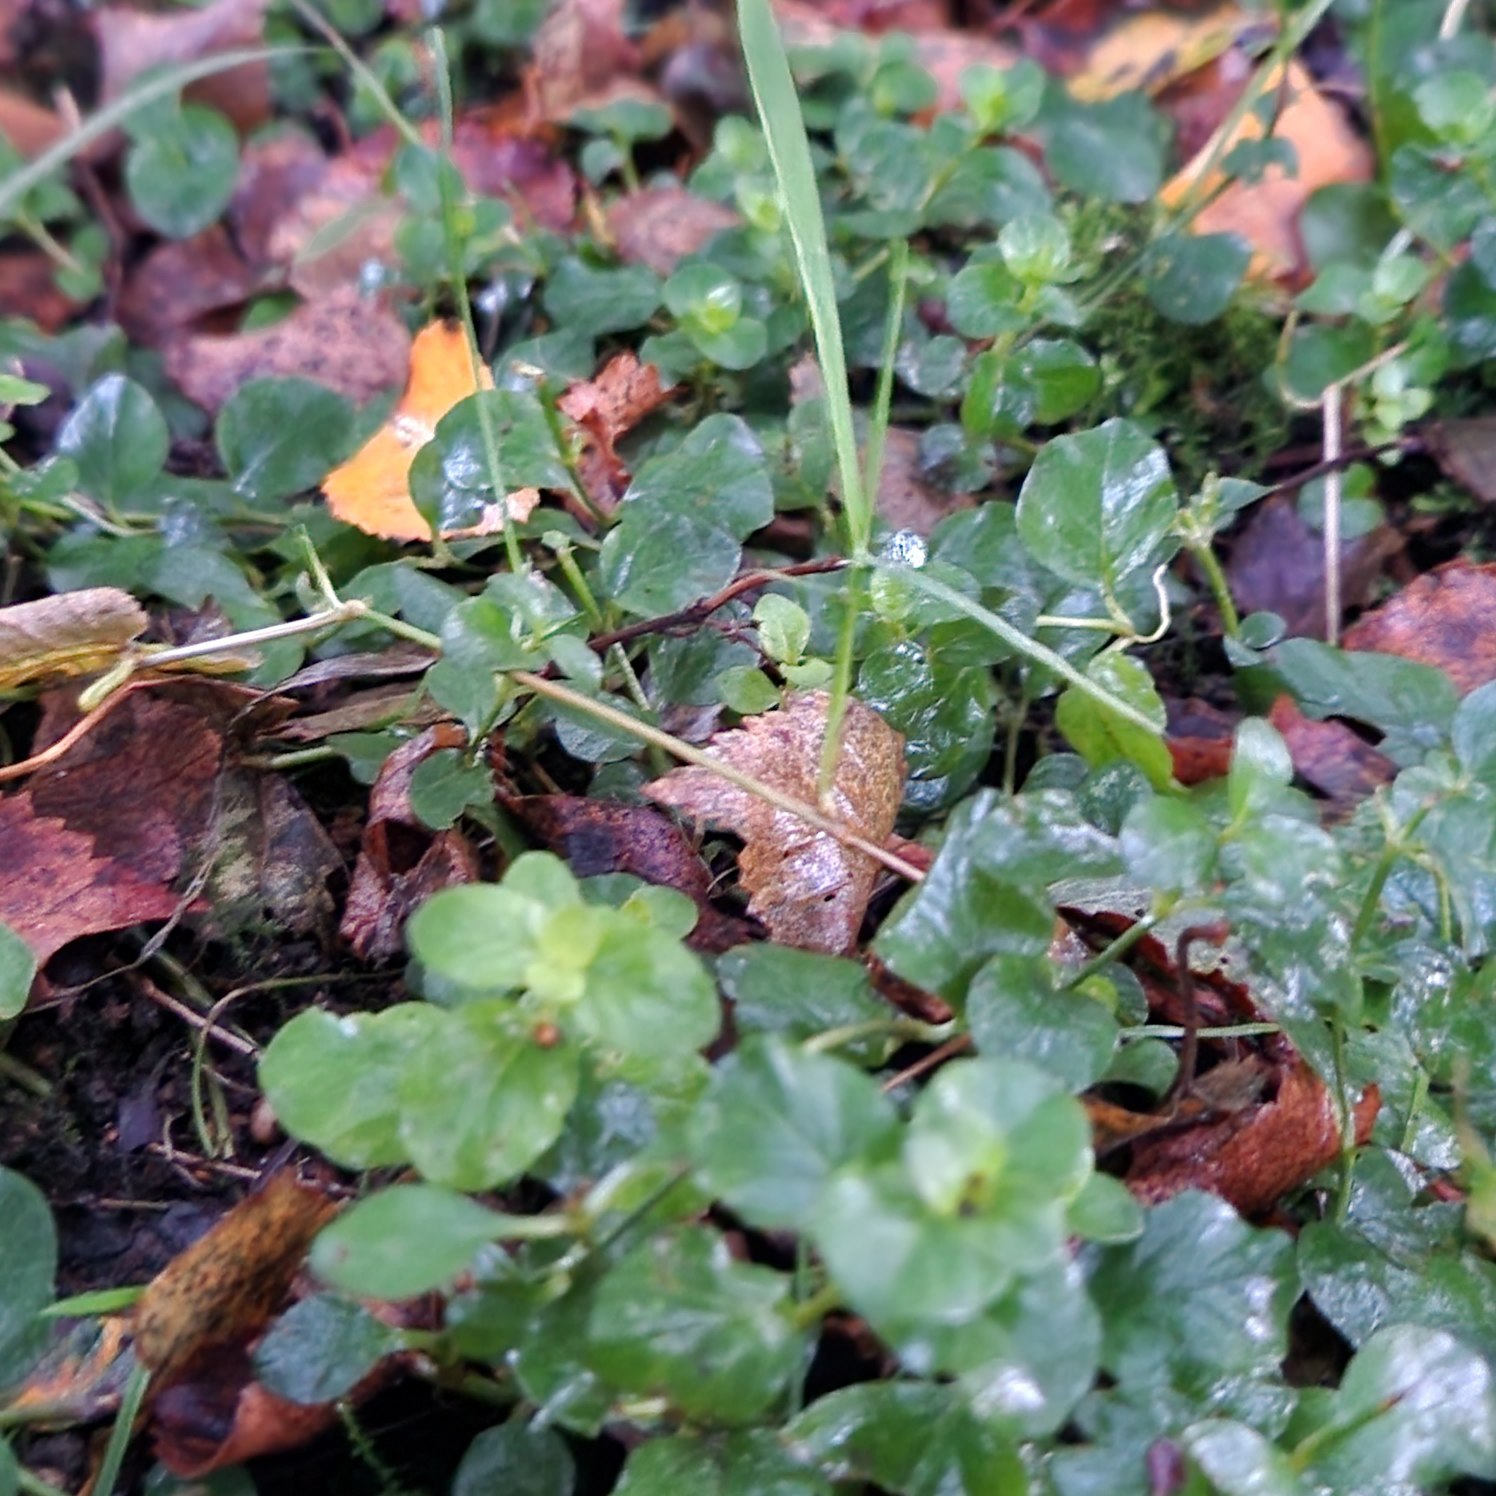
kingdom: Plantae
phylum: Tracheophyta
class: Magnoliopsida
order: Ericales
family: Primulaceae
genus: Lysimachia
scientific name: Lysimachia nummularia
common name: Pengebladet fredløs
